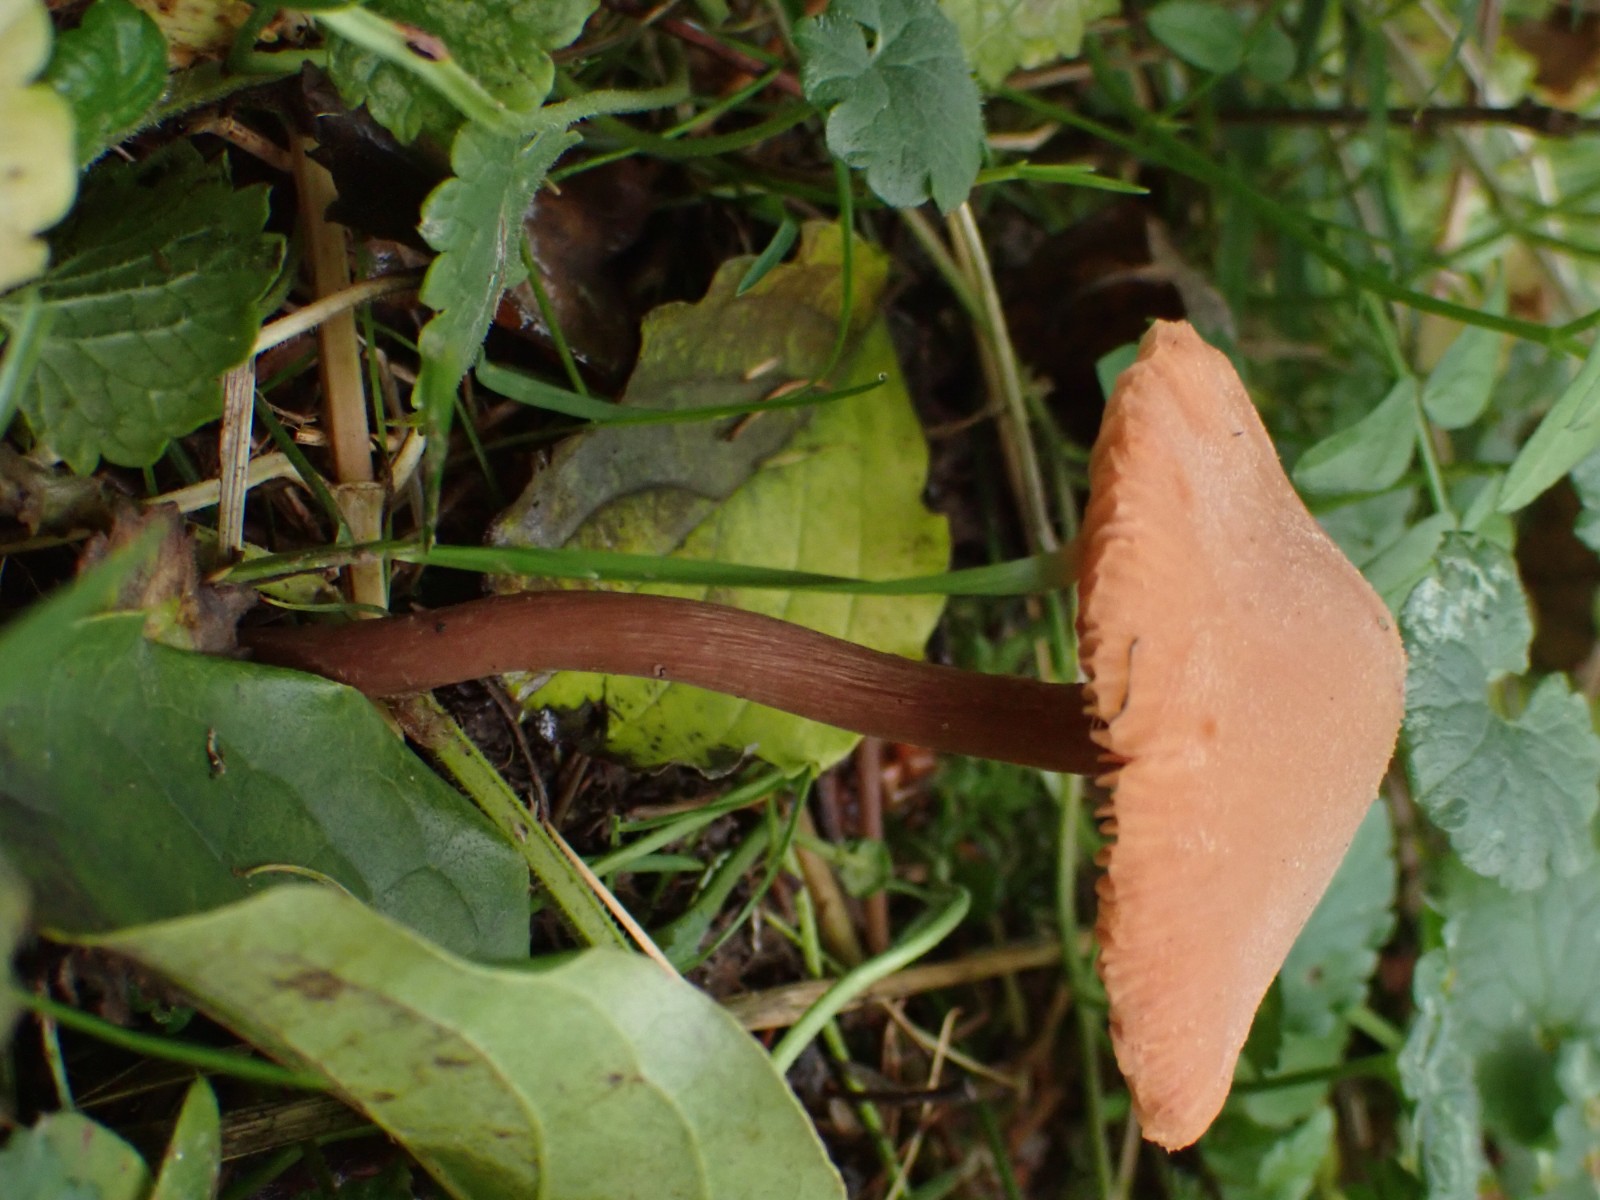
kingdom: Fungi
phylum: Basidiomycota
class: Agaricomycetes
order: Agaricales
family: Hydnangiaceae
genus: Laccaria
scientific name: Laccaria laccata
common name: rød ametysthat
